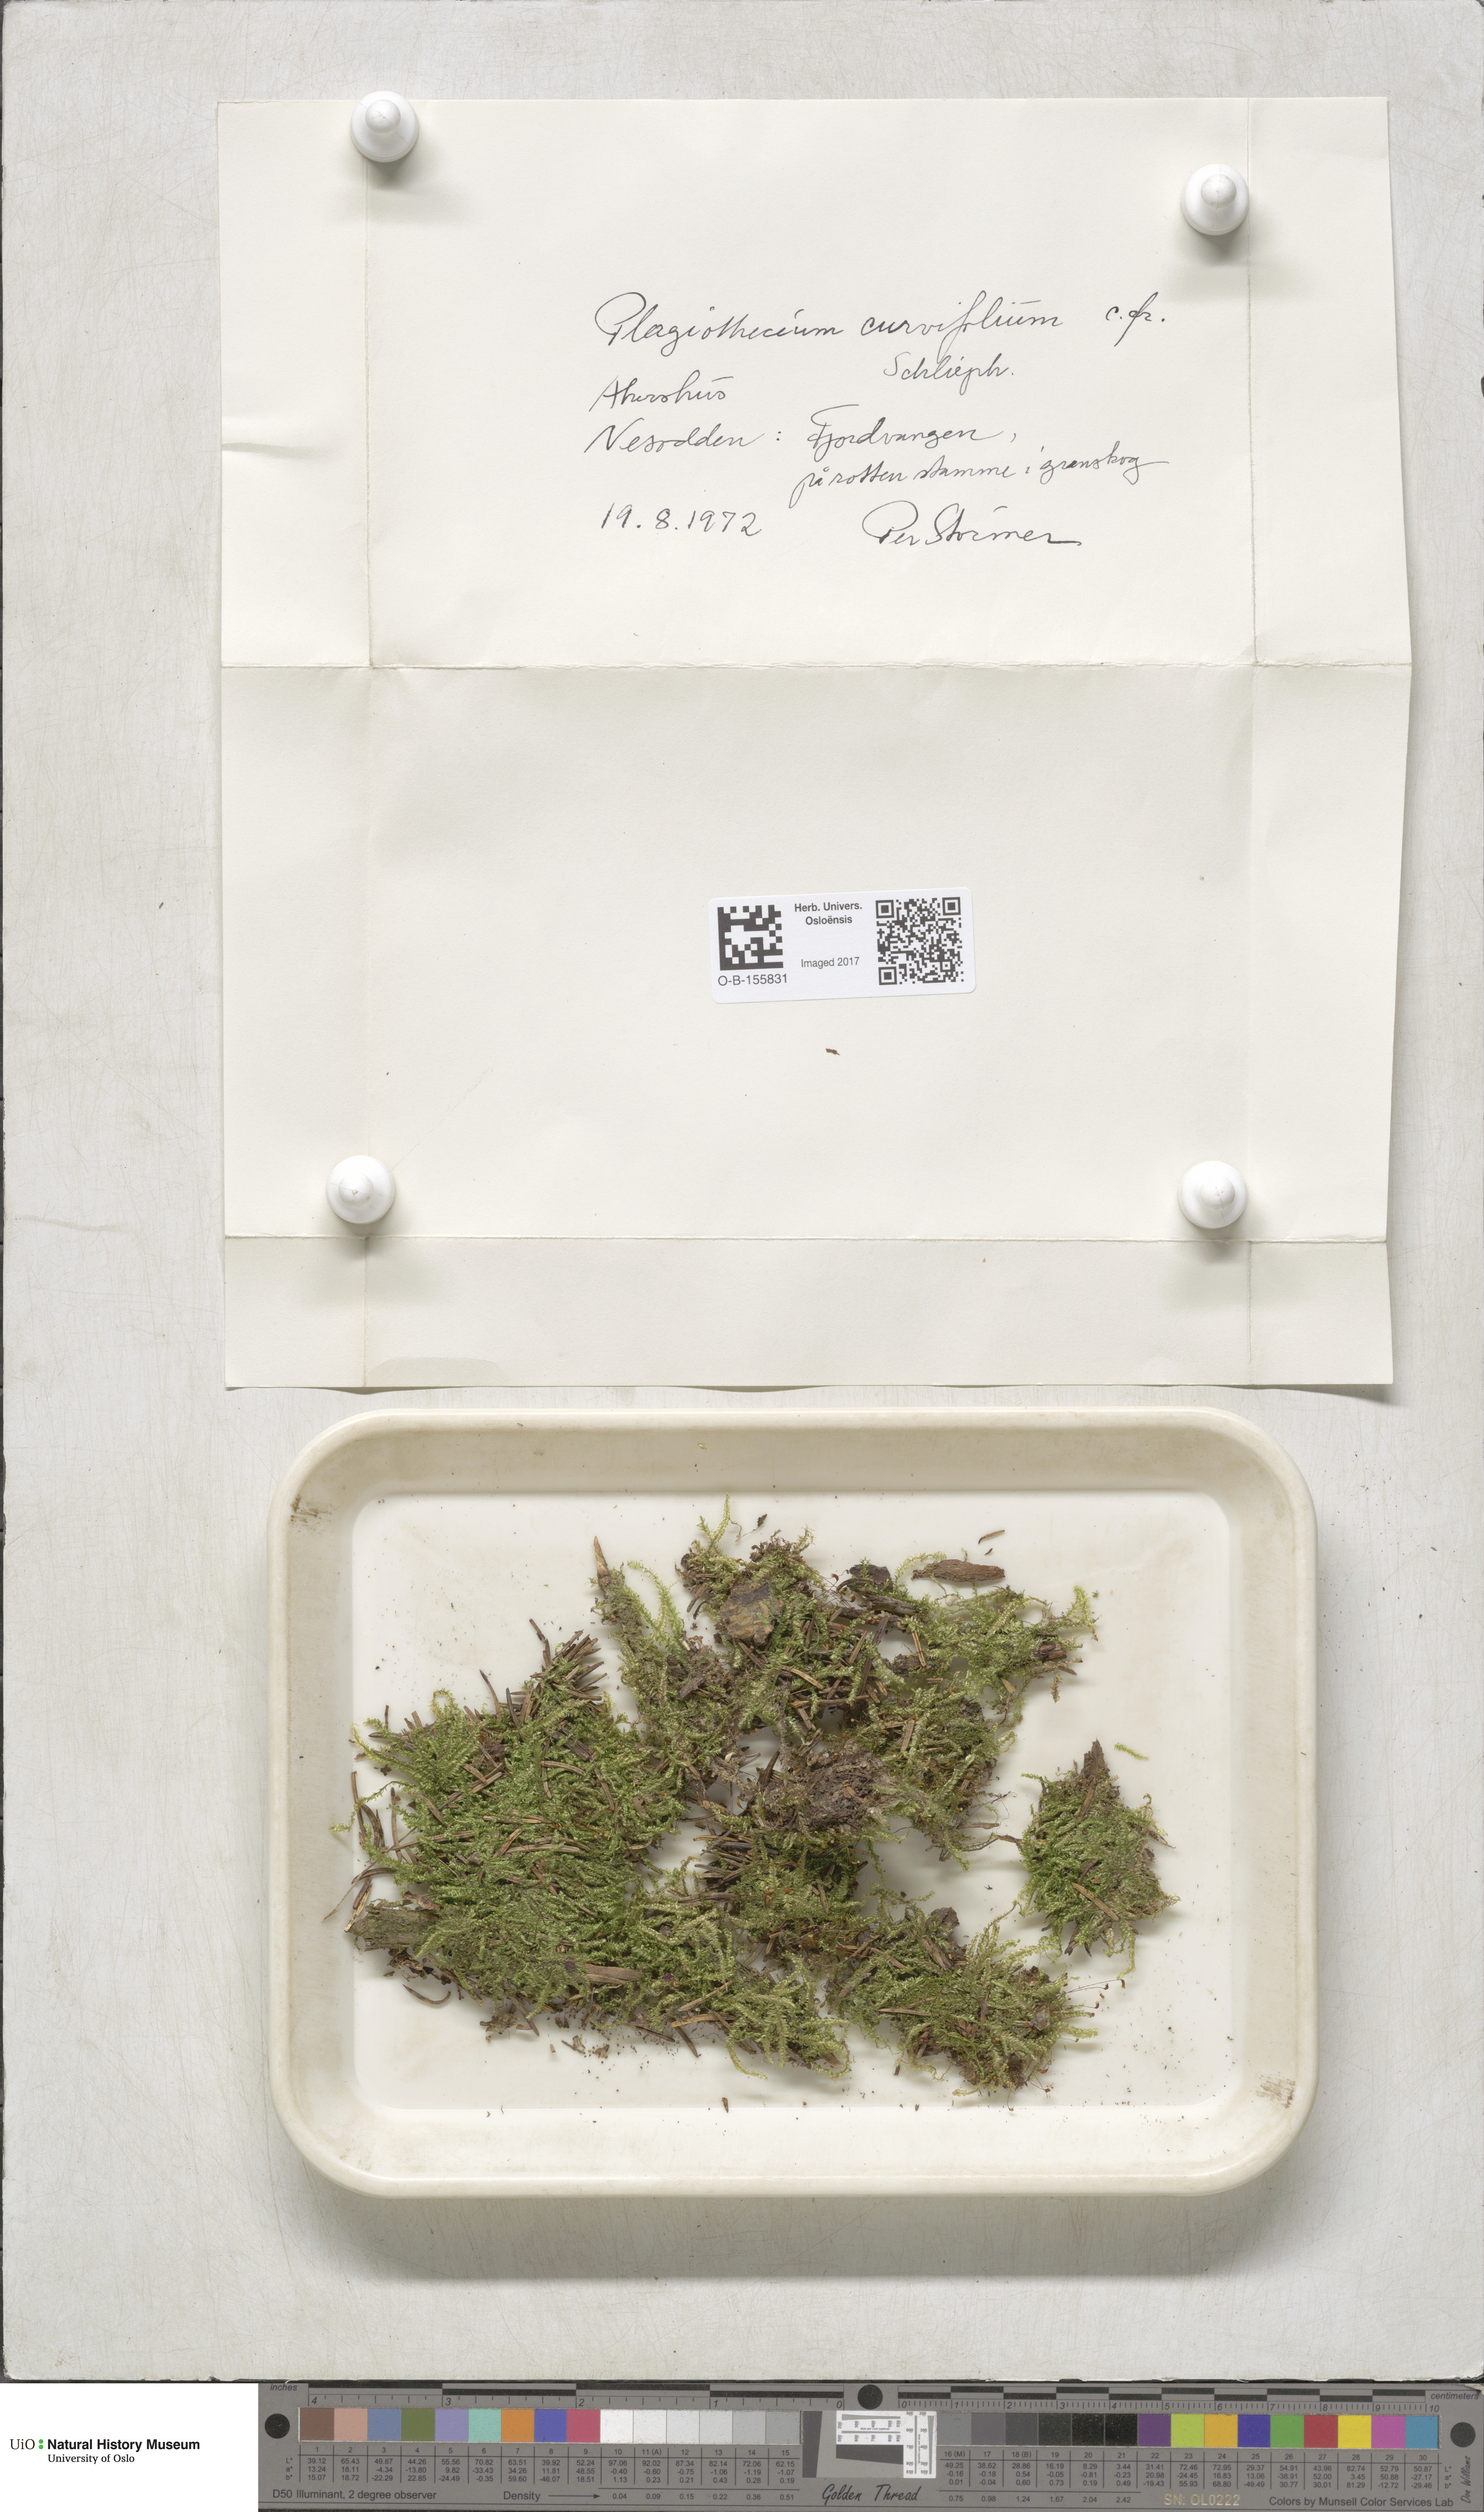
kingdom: Plantae
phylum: Bryophyta
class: Bryopsida
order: Hypnales
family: Plagiotheciaceae
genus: Plagiothecium
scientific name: Plagiothecium curvifolium
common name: Curved silk-moss
